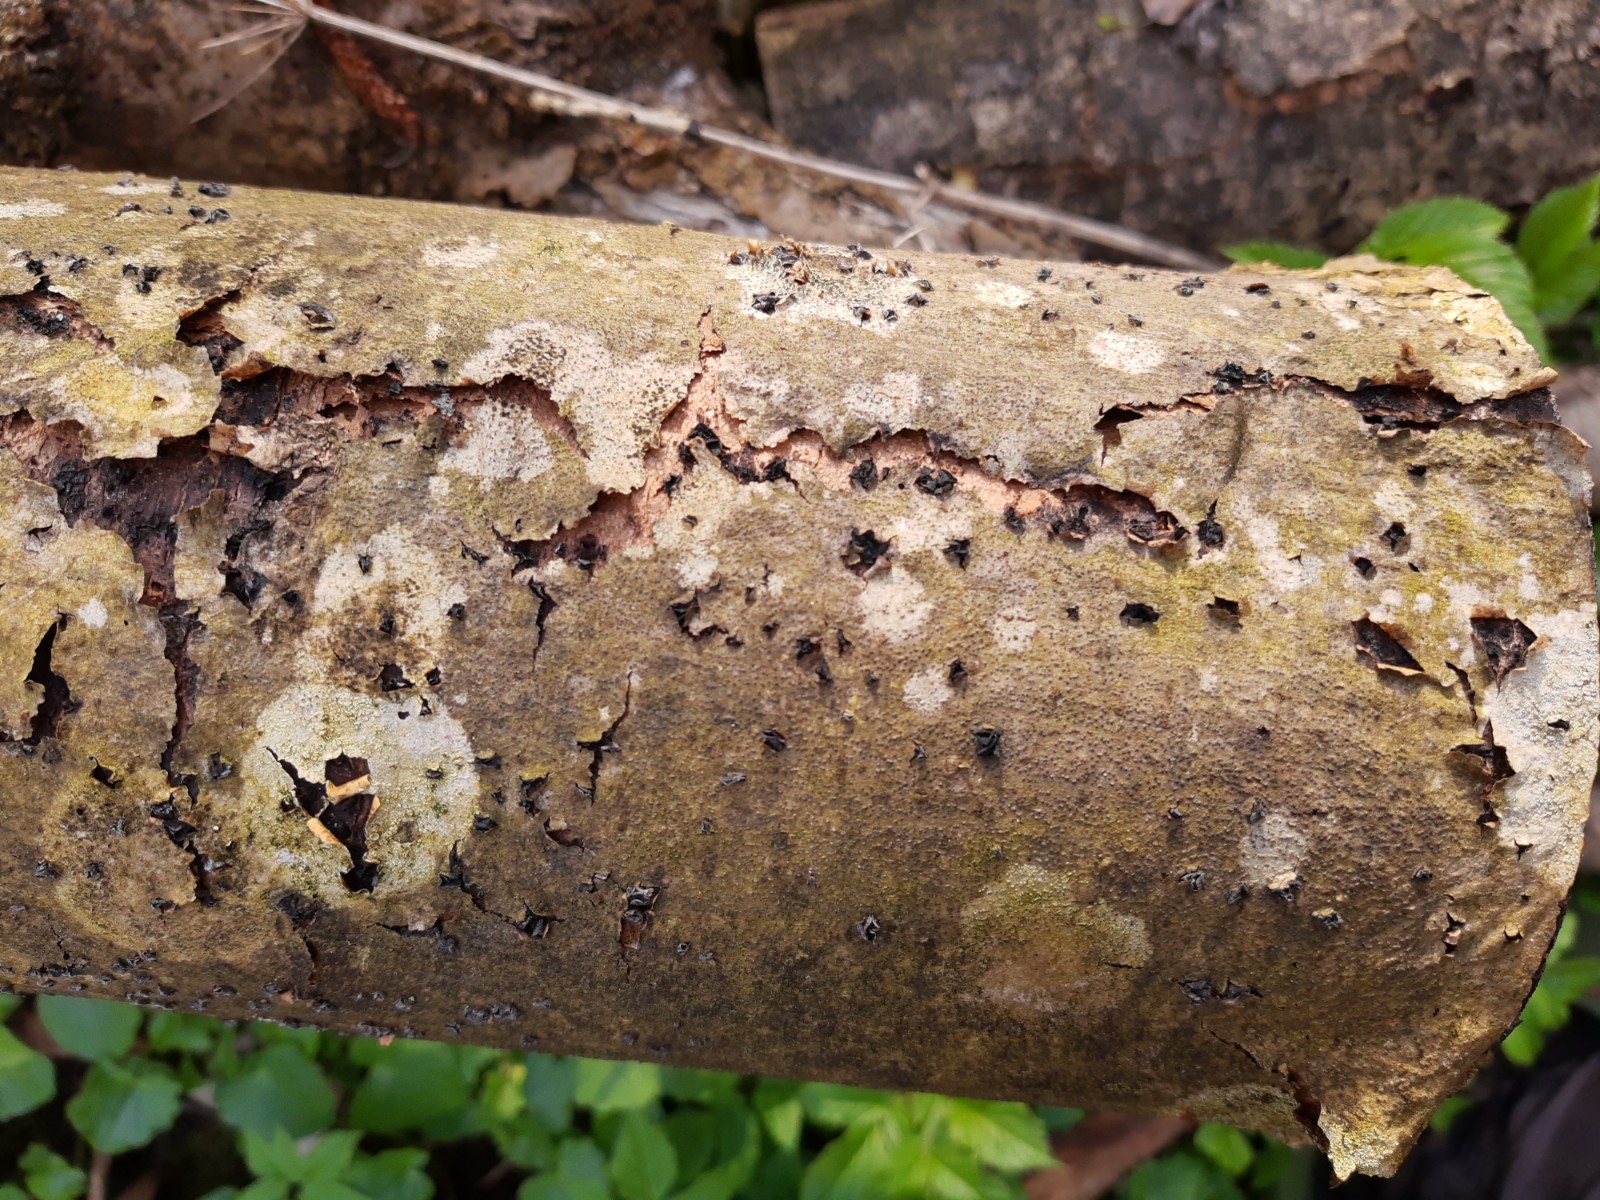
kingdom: Fungi
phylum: Ascomycota
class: Leotiomycetes
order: Helotiales
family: Sclerotiniaceae
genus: Sclerencoelia
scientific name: Sclerencoelia fraxinicola
